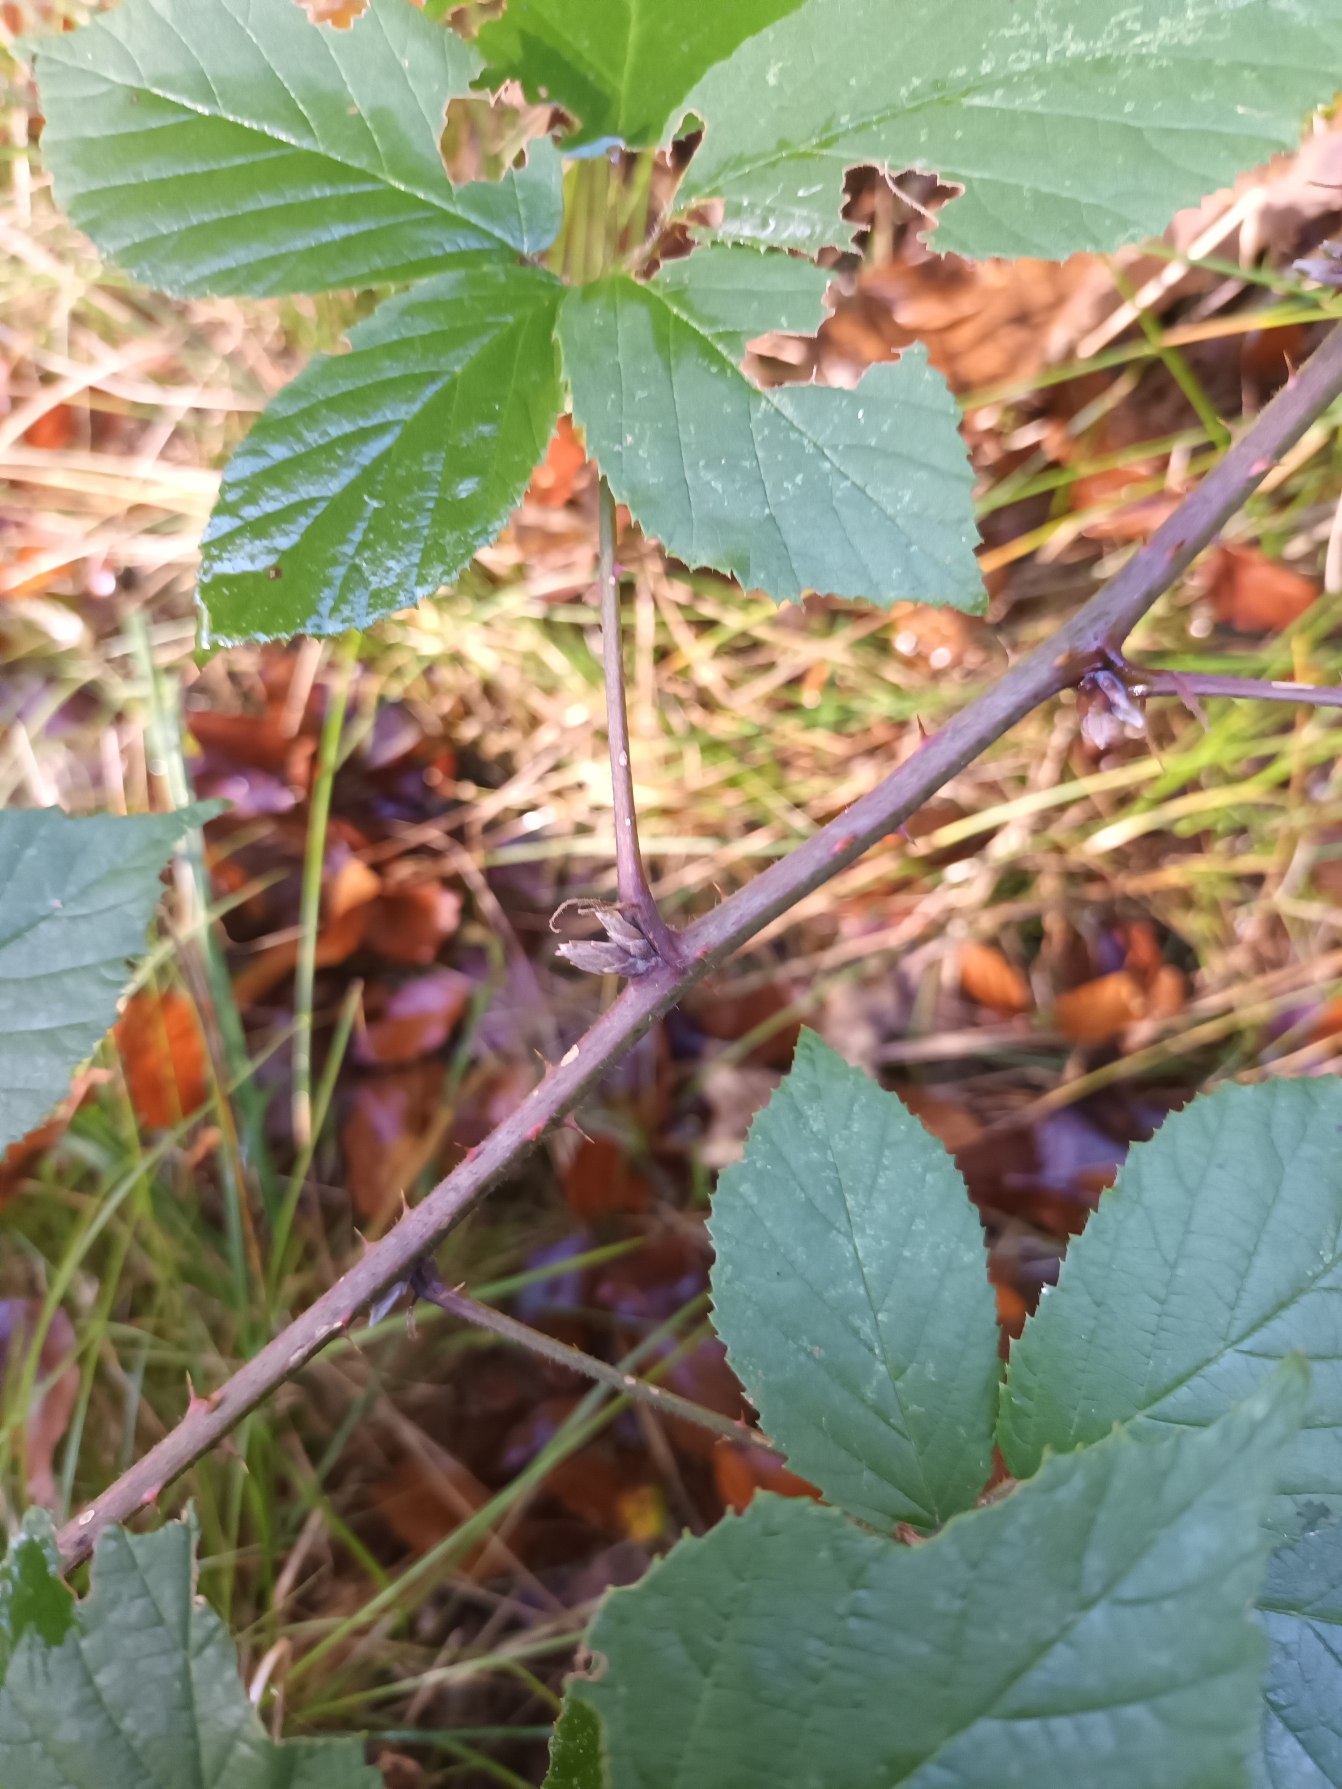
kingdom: Plantae
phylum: Tracheophyta
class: Magnoliopsida
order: Rosales
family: Rosaceae
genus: Rubus
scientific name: Rubus radula
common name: Rasperu brombær
